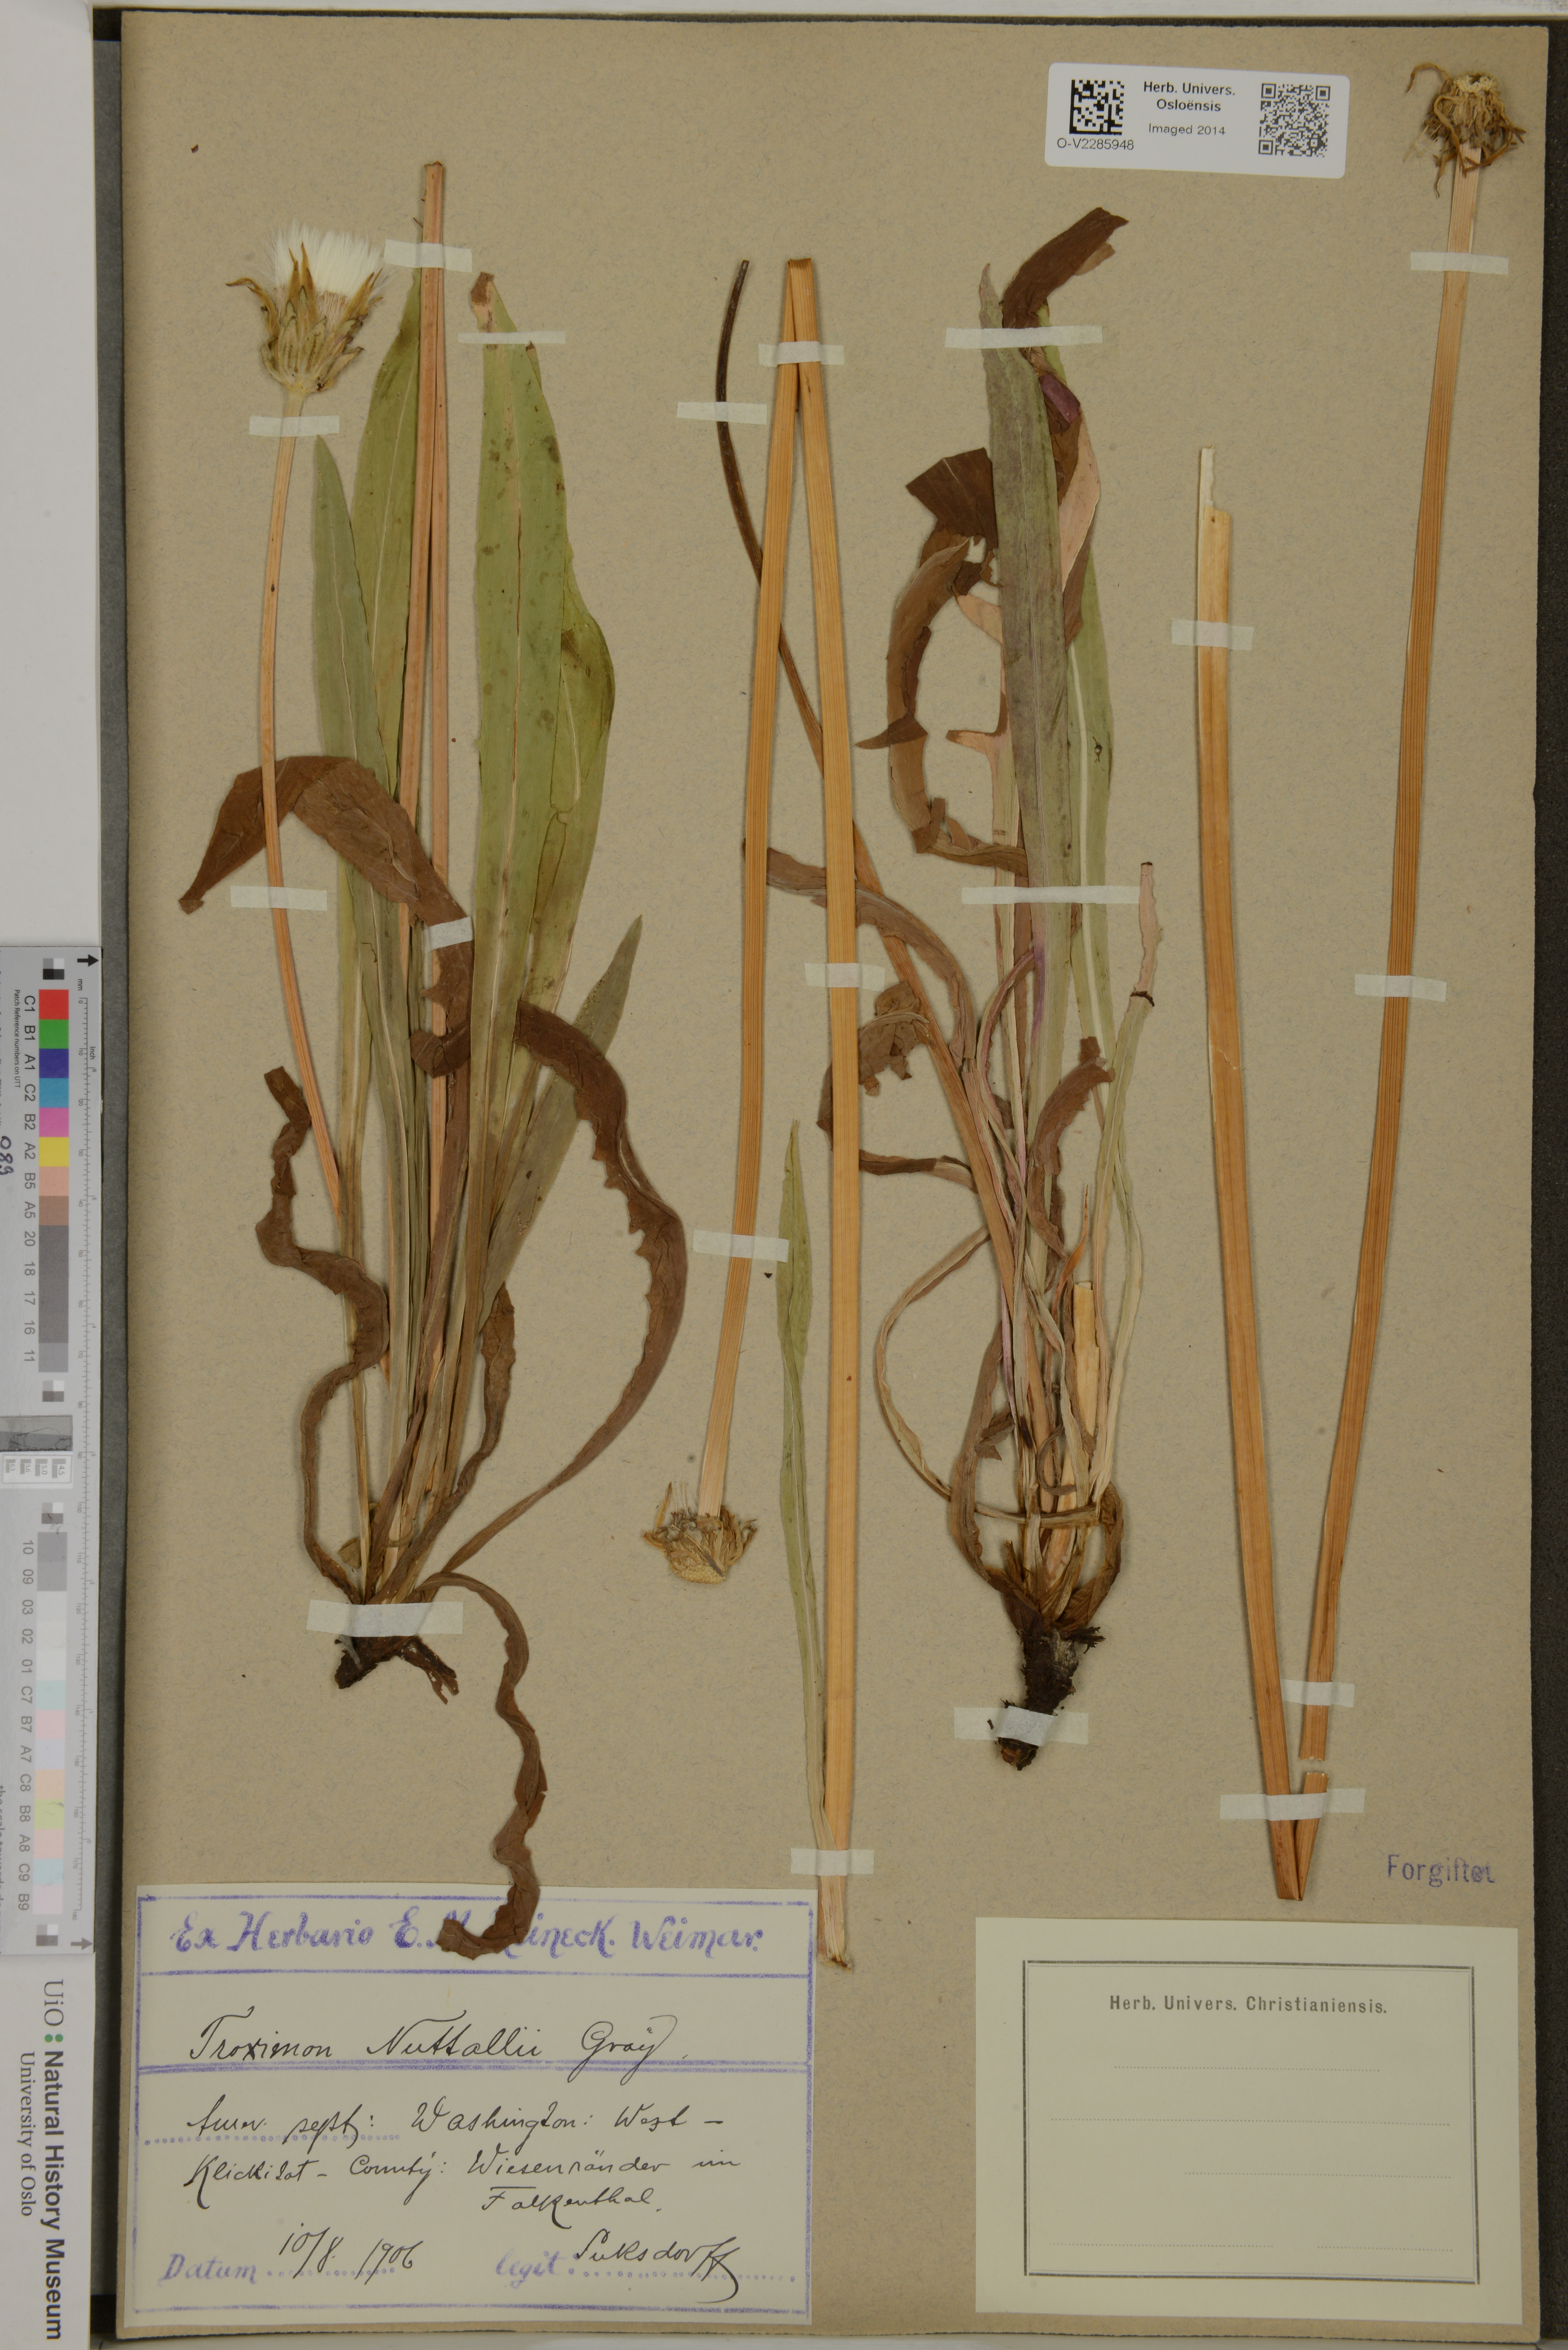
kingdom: Plantae
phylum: Tracheophyta
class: Magnoliopsida
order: Asterales
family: Asteraceae
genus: Agoseris
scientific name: Agoseris elata
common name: Willamette agoseris
